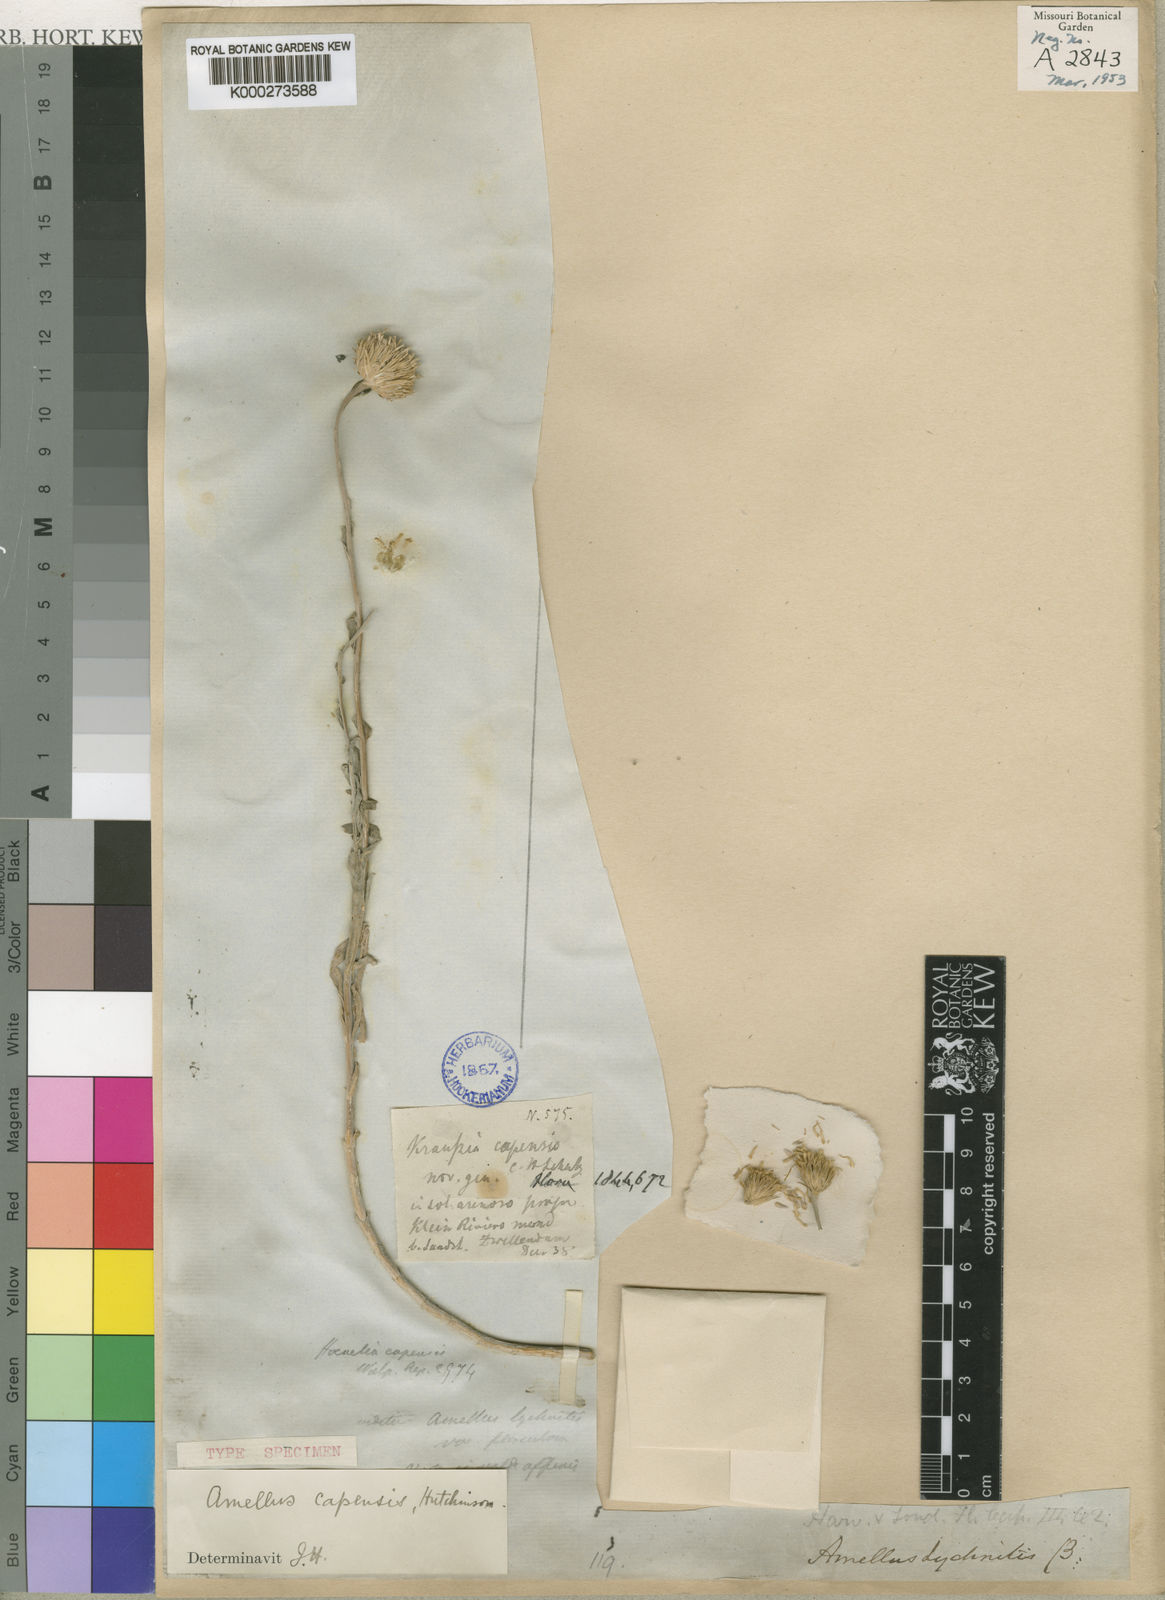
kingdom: Plantae
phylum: Tracheophyta
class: Magnoliopsida
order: Asterales
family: Asteraceae
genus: Amellus
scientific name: Amellus capensis
